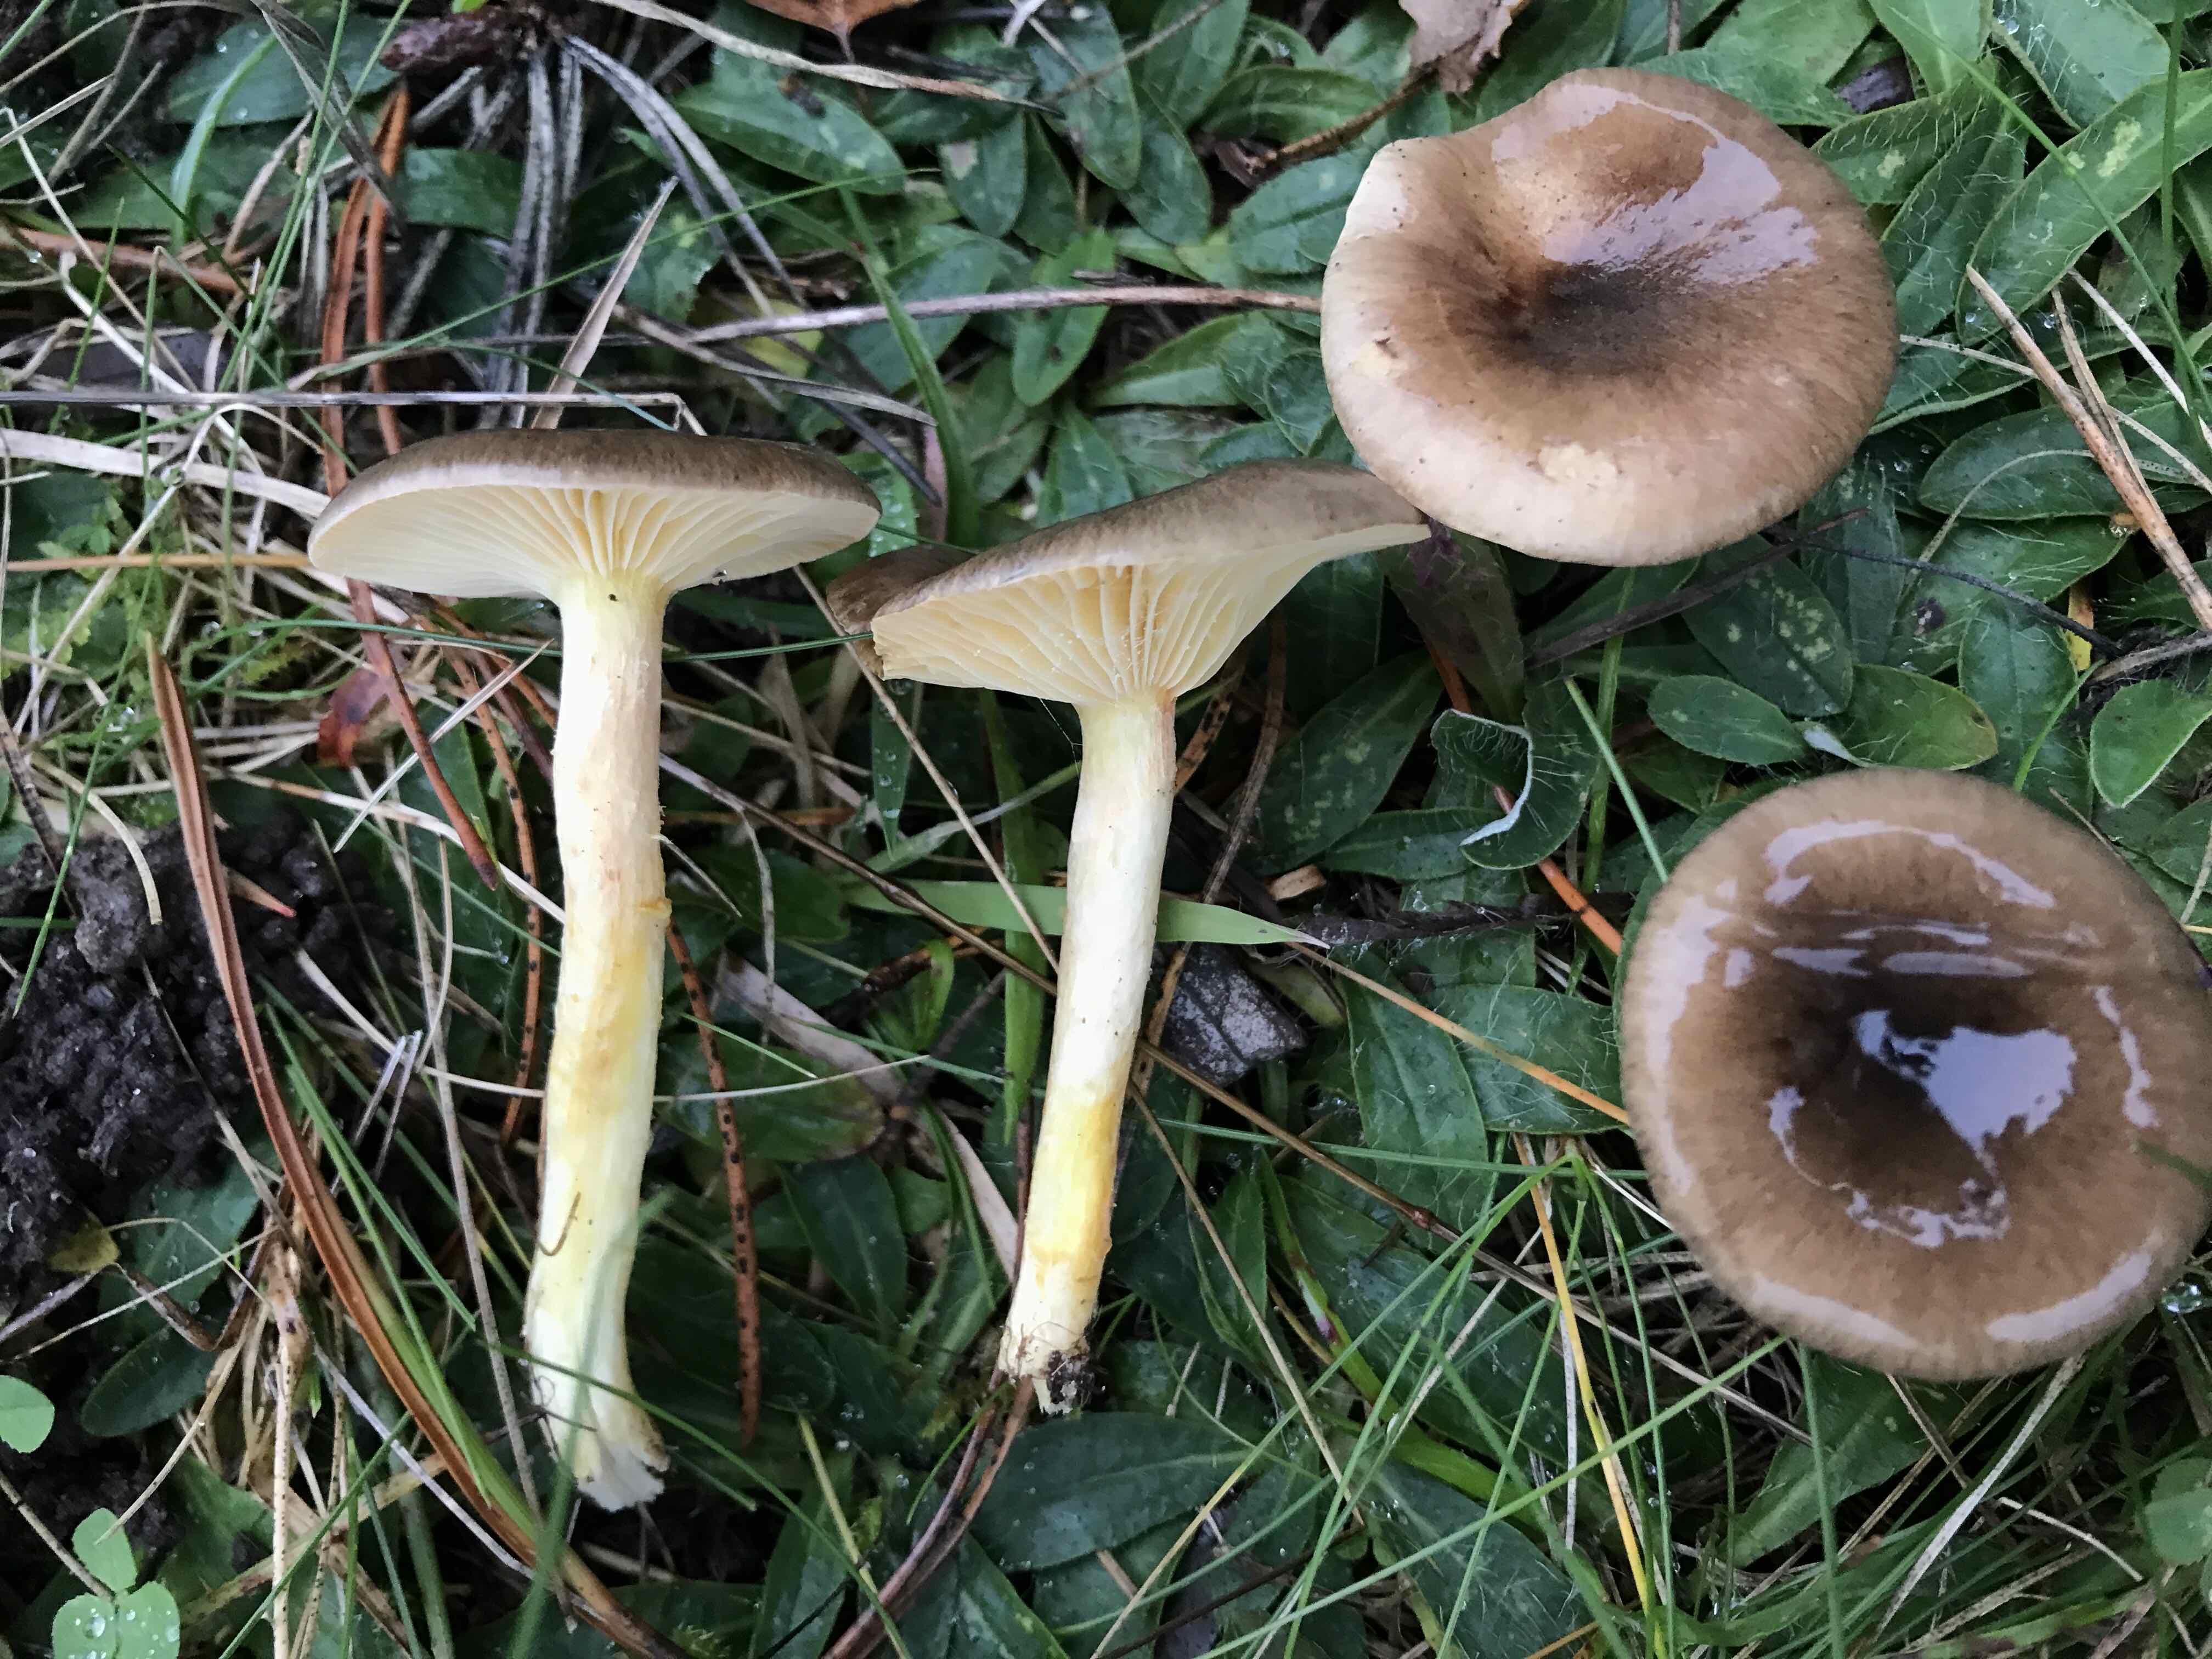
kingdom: Fungi
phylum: Basidiomycota
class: Agaricomycetes
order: Agaricales
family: Hygrophoraceae
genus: Hygrophorus
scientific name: Hygrophorus hypothejus
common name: frost-sneglehat
